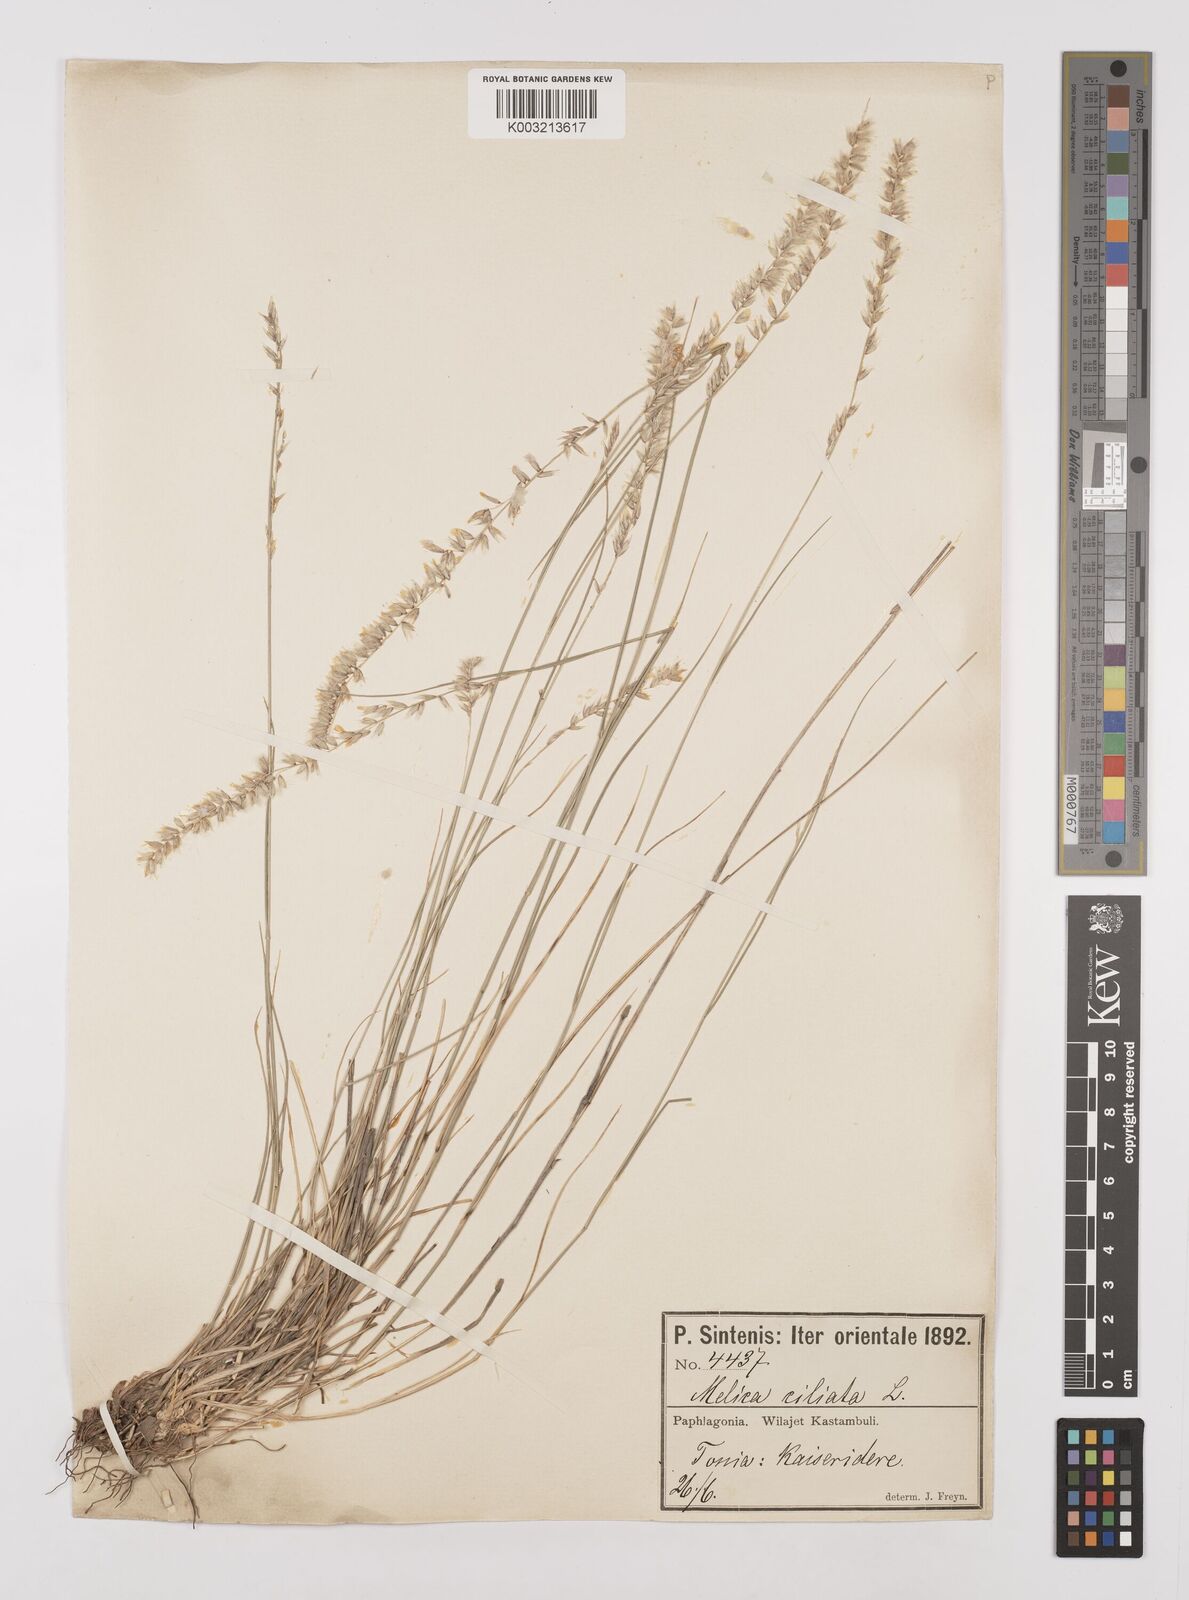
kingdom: Plantae
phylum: Tracheophyta
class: Liliopsida
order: Poales
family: Poaceae
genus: Melica
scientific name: Melica ciliata
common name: Hairy melicgrass
